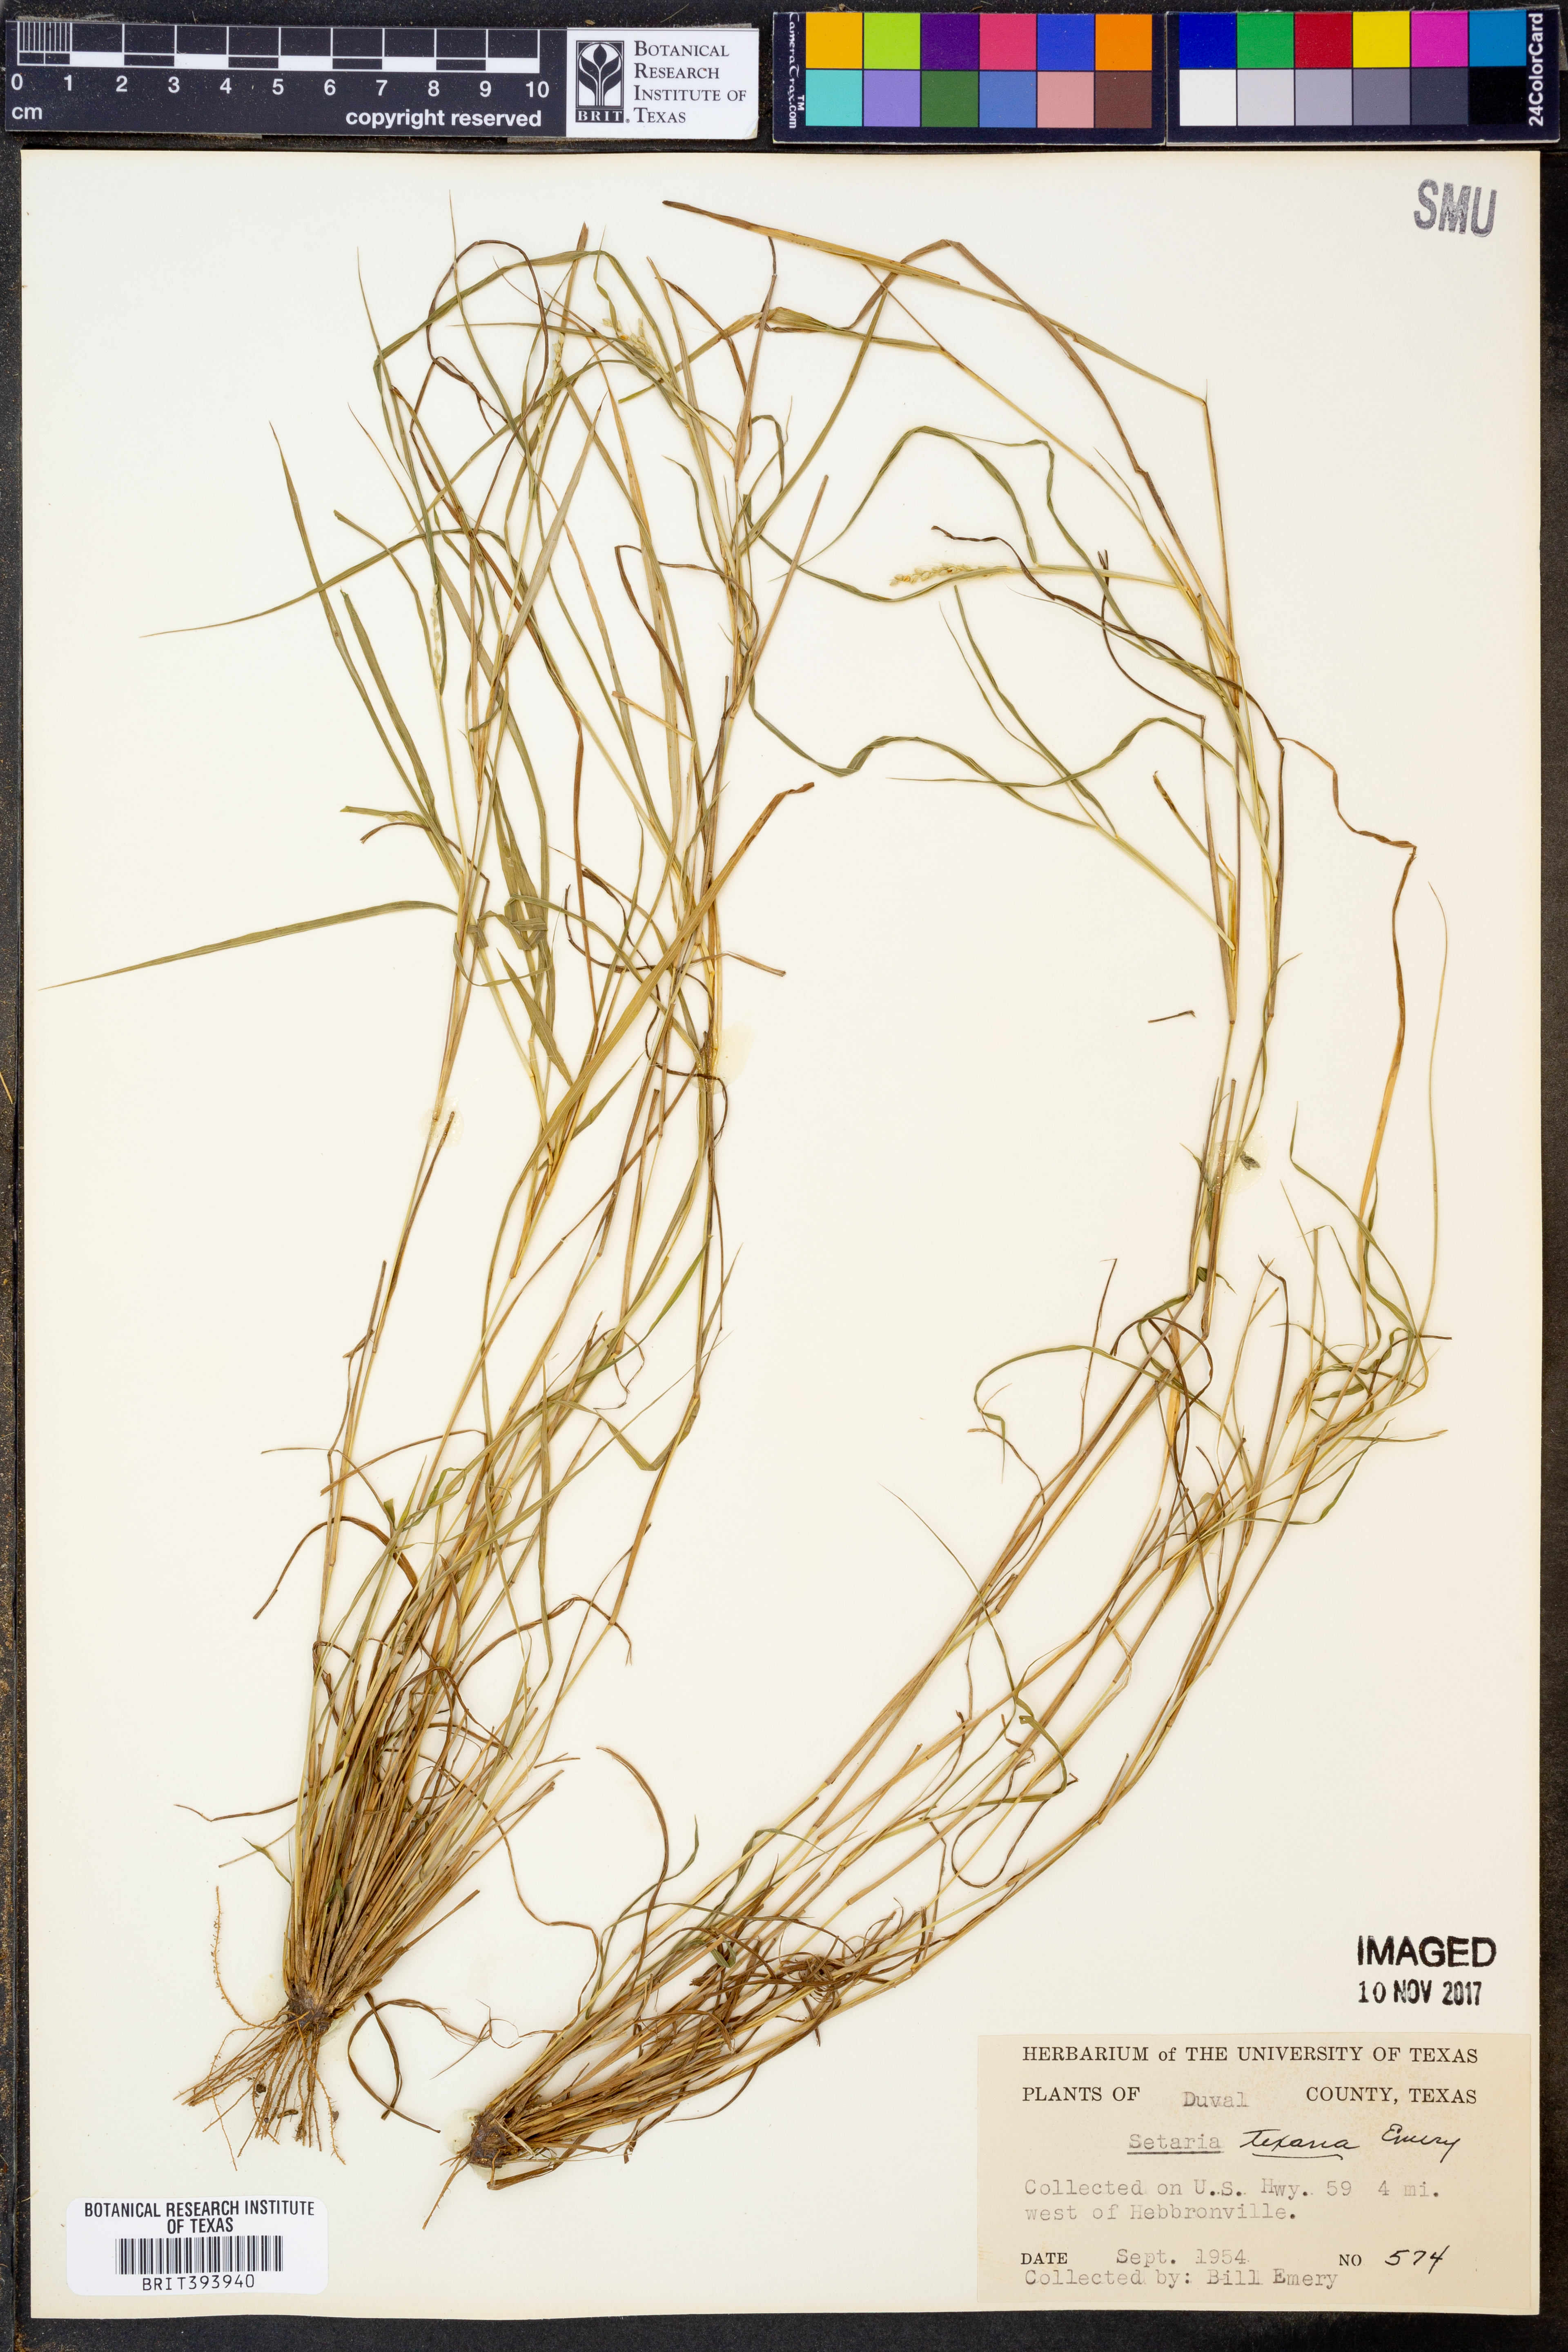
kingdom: Plantae
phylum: Tracheophyta
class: Liliopsida
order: Poales
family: Poaceae
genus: Setaria
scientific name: Setaria texana
